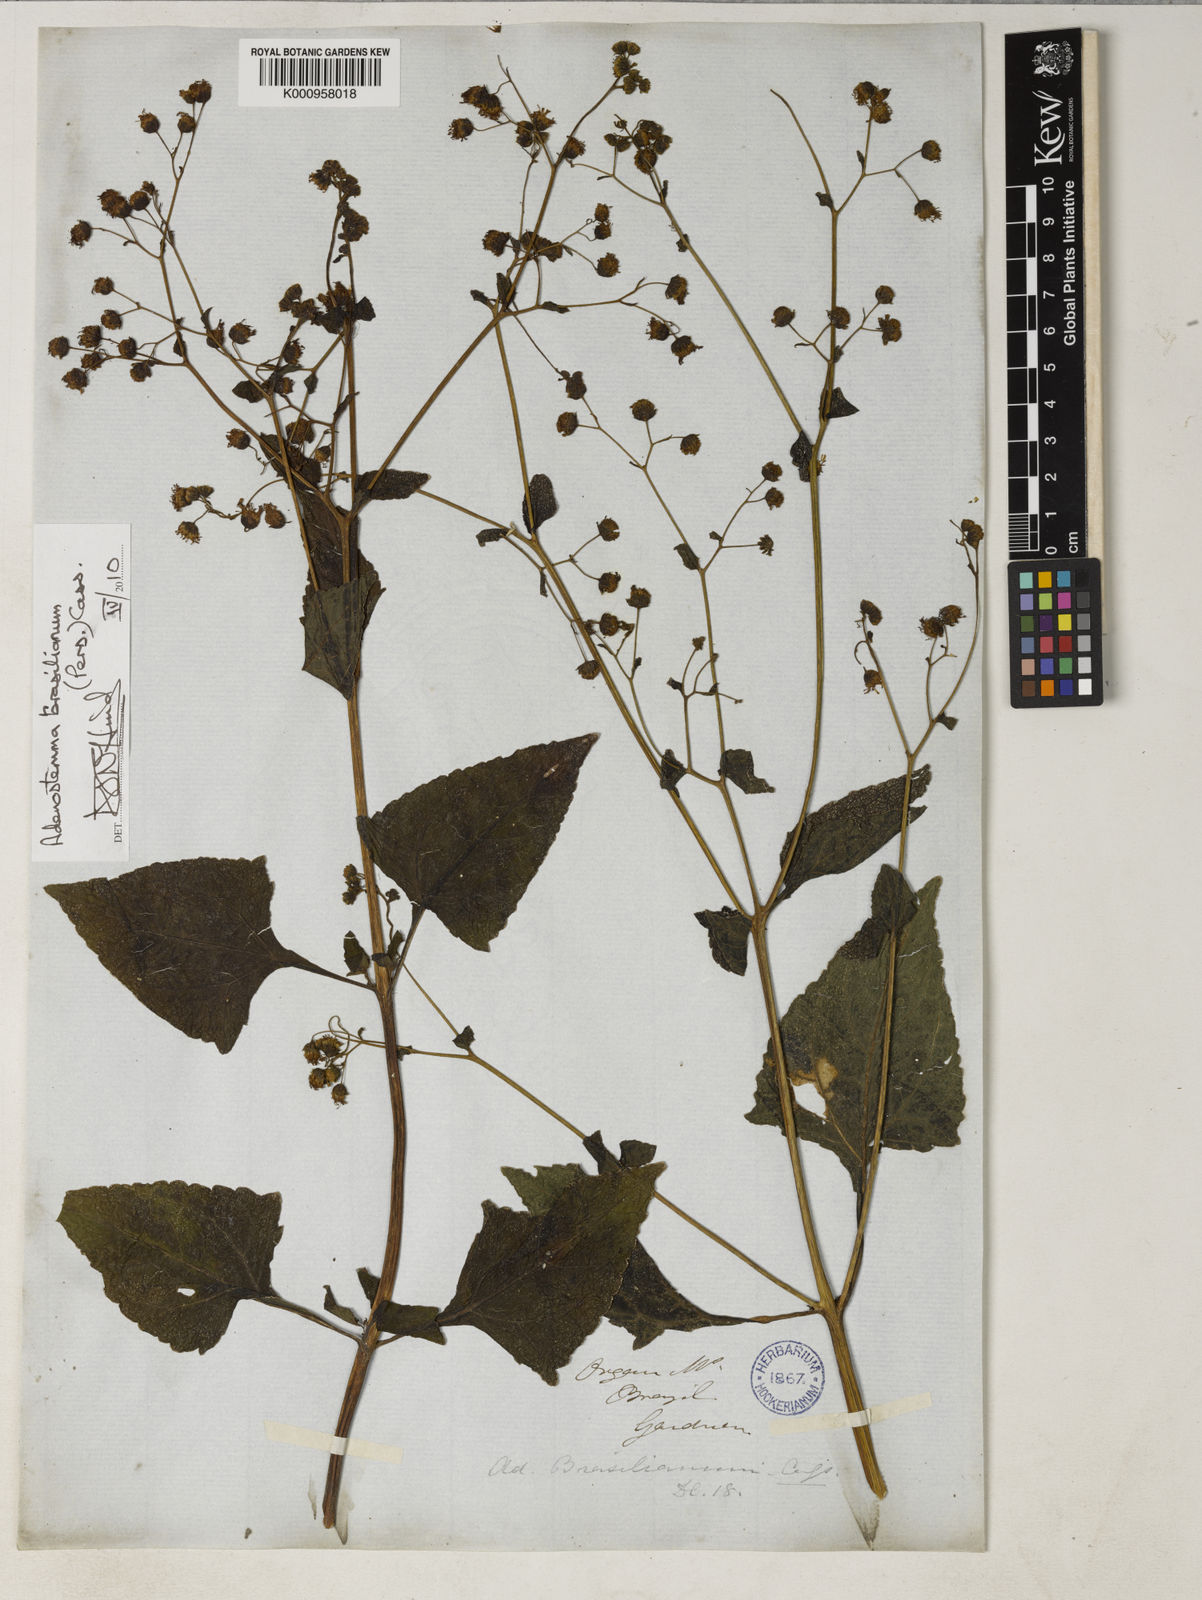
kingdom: Plantae
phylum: Tracheophyta
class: Magnoliopsida
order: Asterales
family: Asteraceae
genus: Adenostemma
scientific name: Adenostemma brasilianum
